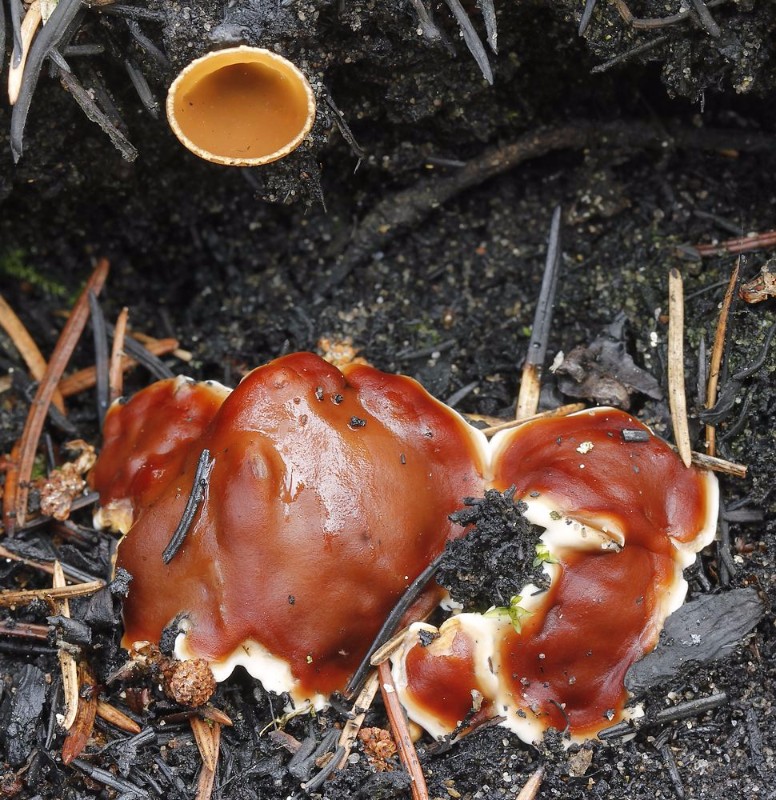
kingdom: Fungi
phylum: Ascomycota
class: Pezizomycetes
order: Pezizales
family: Pyronemataceae
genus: Geopyxis
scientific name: Geopyxis carbonaria
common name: kulbæger
